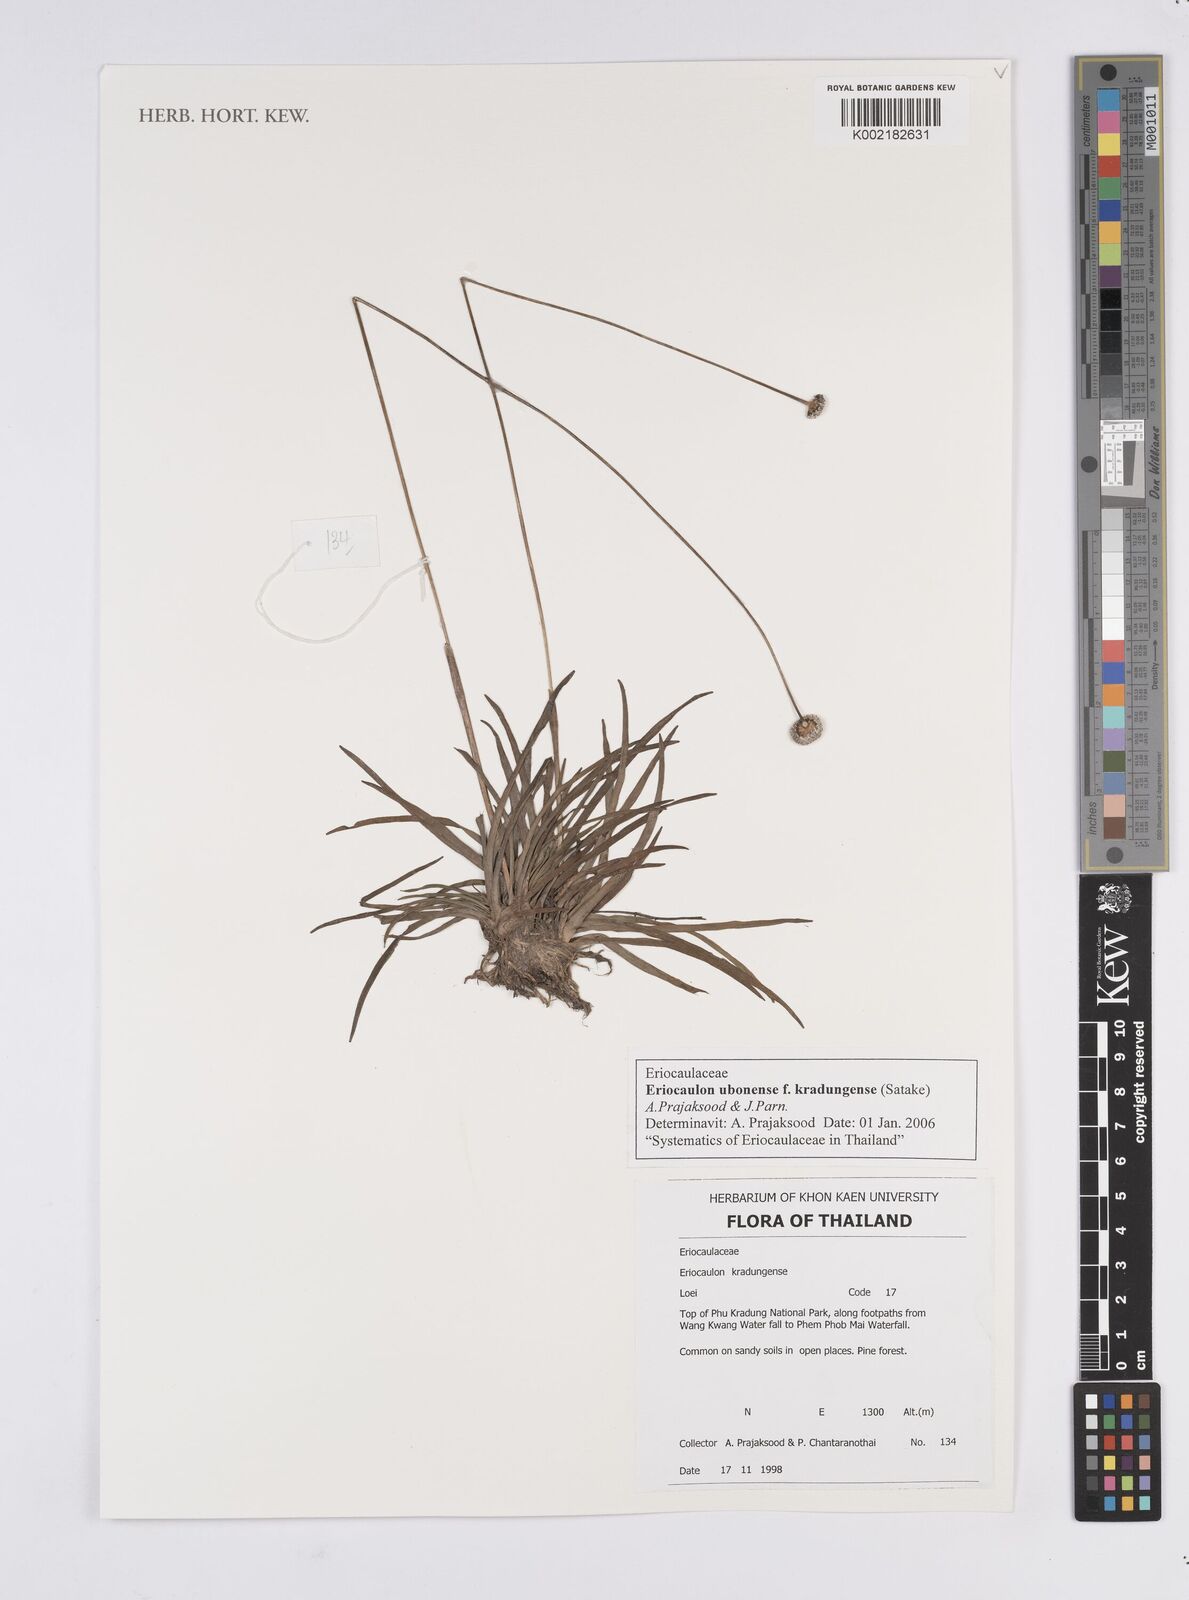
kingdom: Plantae
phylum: Tracheophyta
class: Liliopsida
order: Poales
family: Eriocaulaceae
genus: Eriocaulon
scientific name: Eriocaulon ubonense
